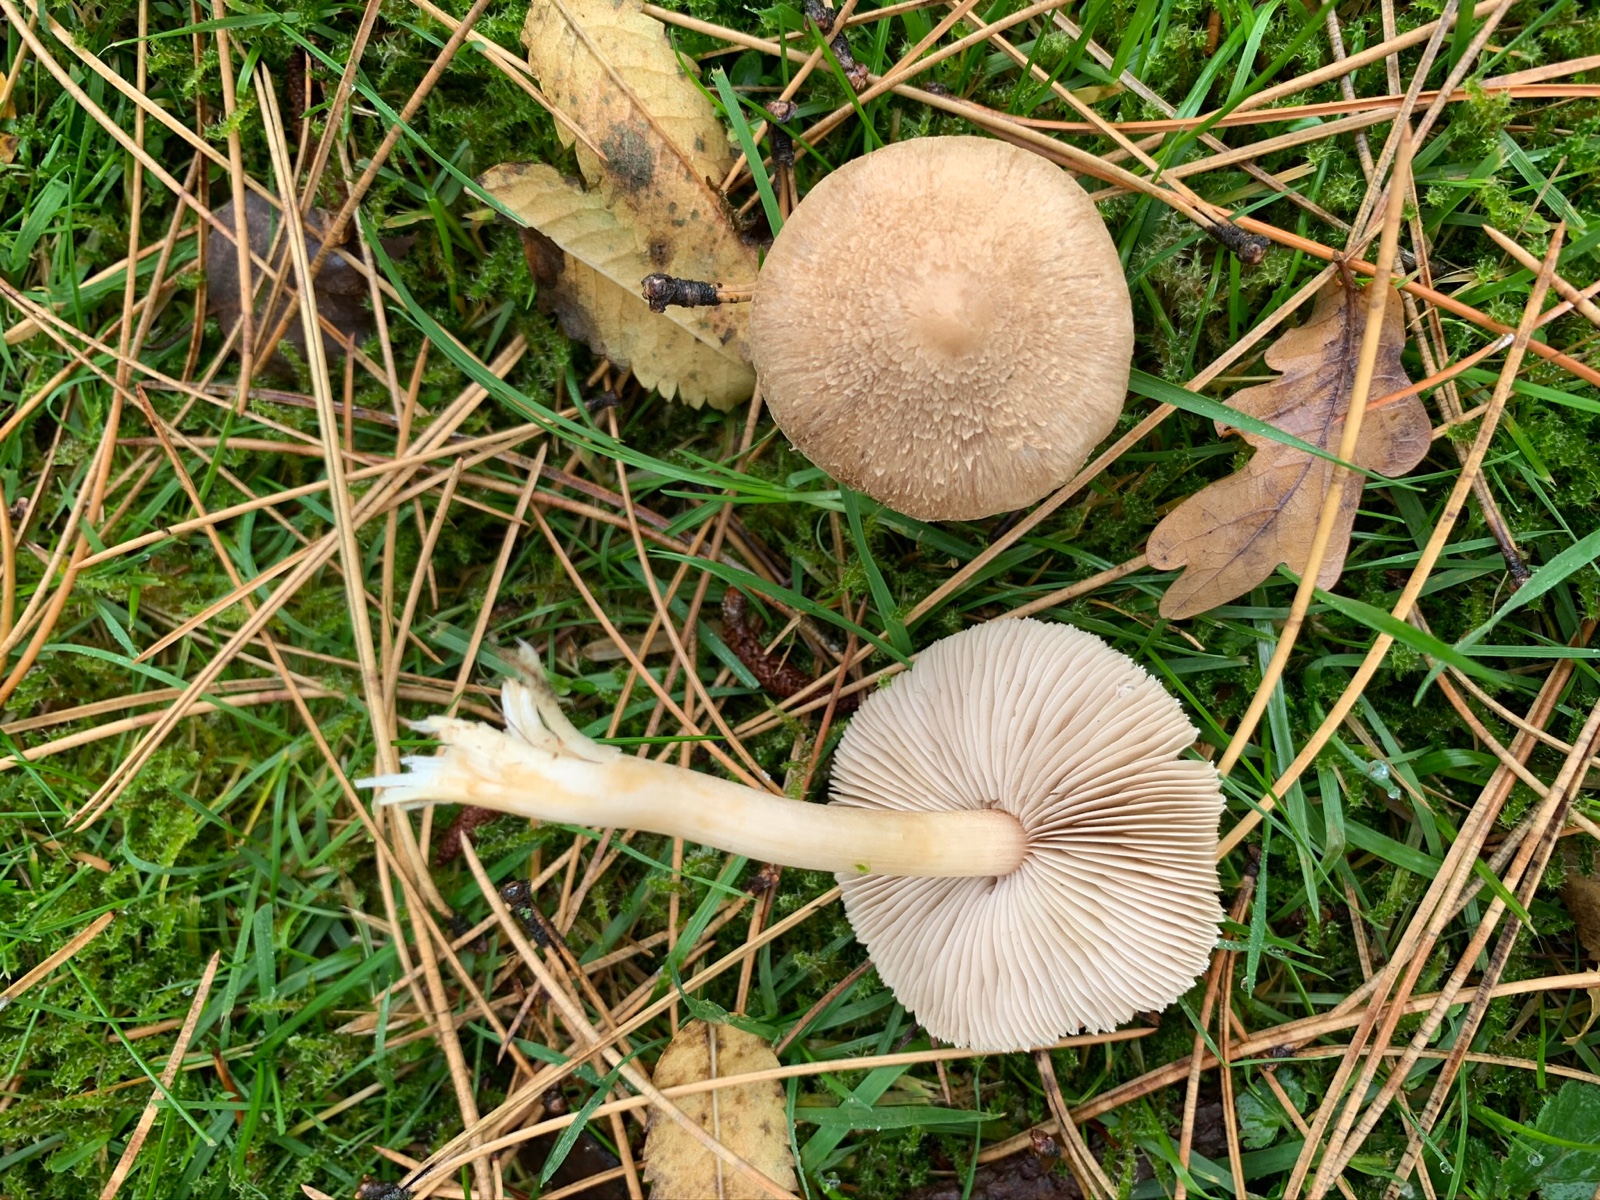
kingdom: Fungi
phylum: Basidiomycota
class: Agaricomycetes
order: Agaricales
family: Inocybaceae
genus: Inocybe
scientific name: Inocybe sindonia
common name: bleg trævlhat
